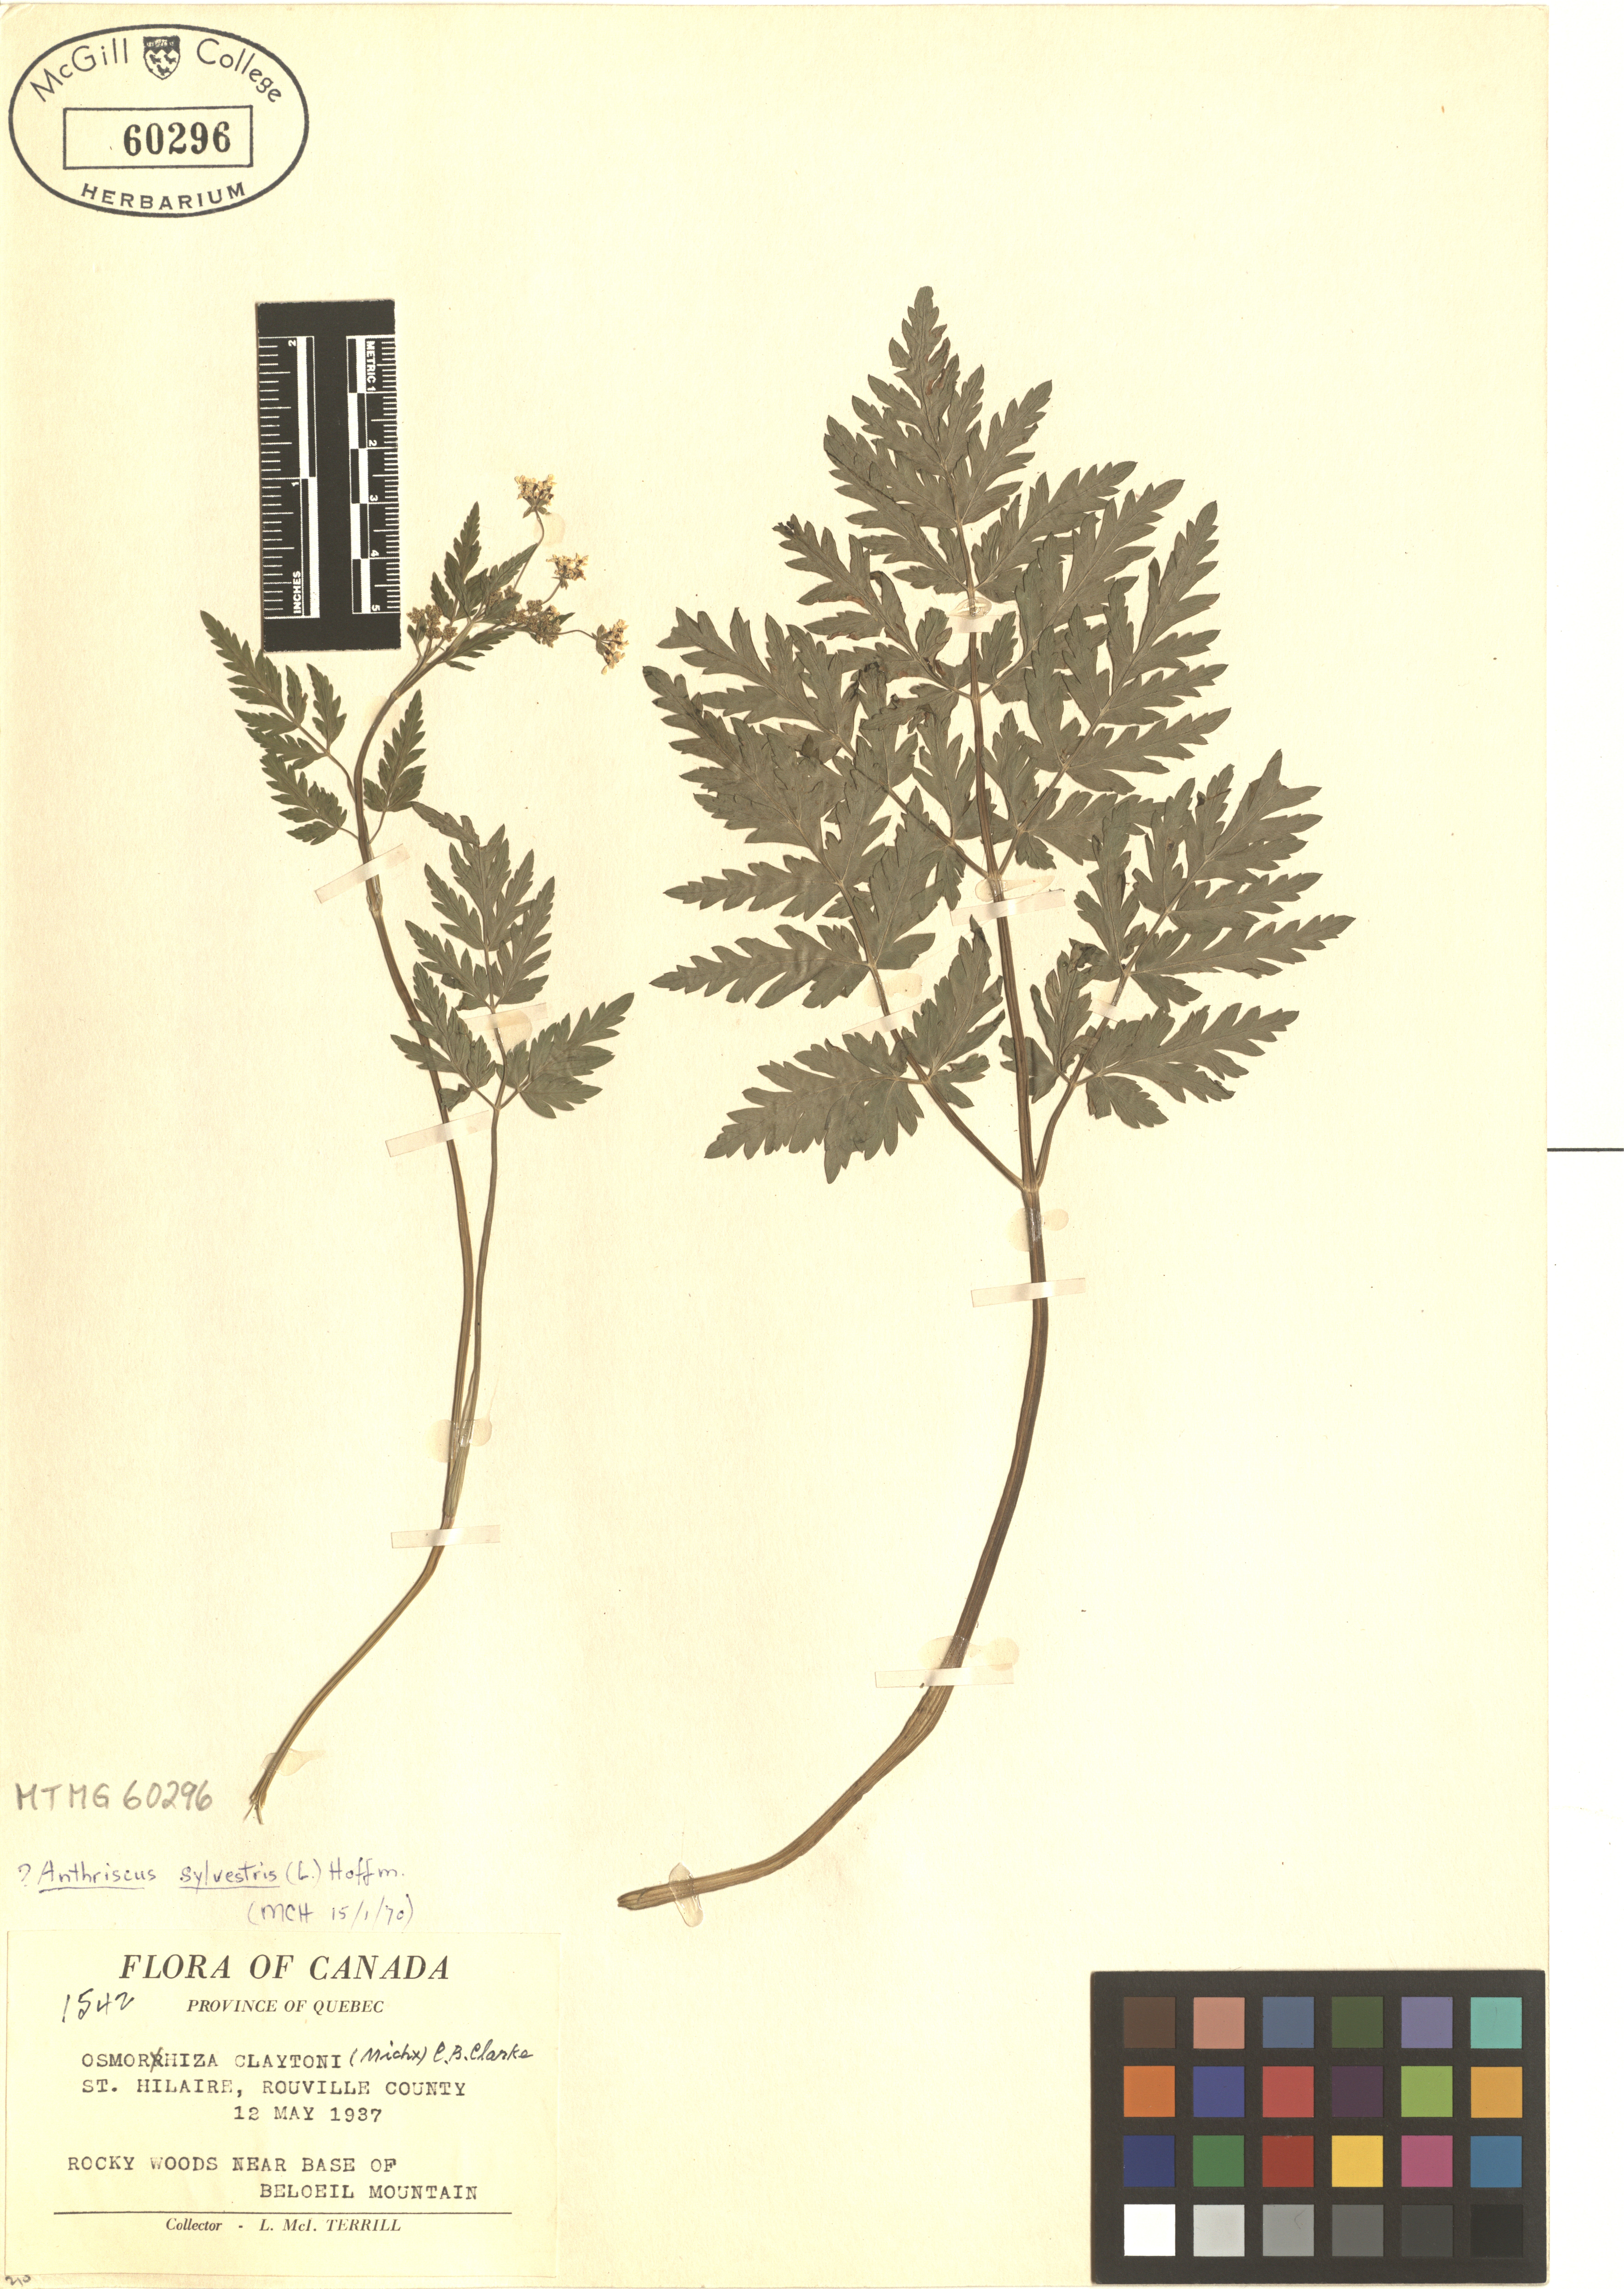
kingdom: Plantae
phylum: Tracheophyta
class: Magnoliopsida
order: Apiales
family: Apiaceae
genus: Anthriscus
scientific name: Anthriscus sylvestris
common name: Cow parsley
